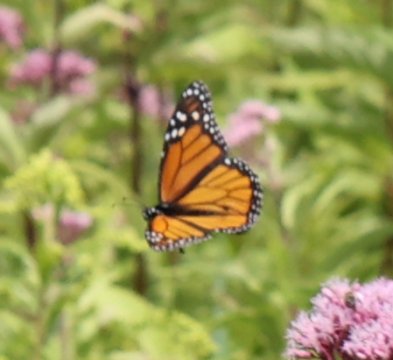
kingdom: Animalia
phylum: Arthropoda
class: Insecta
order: Lepidoptera
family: Nymphalidae
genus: Danaus
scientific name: Danaus plexippus
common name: Monarch
